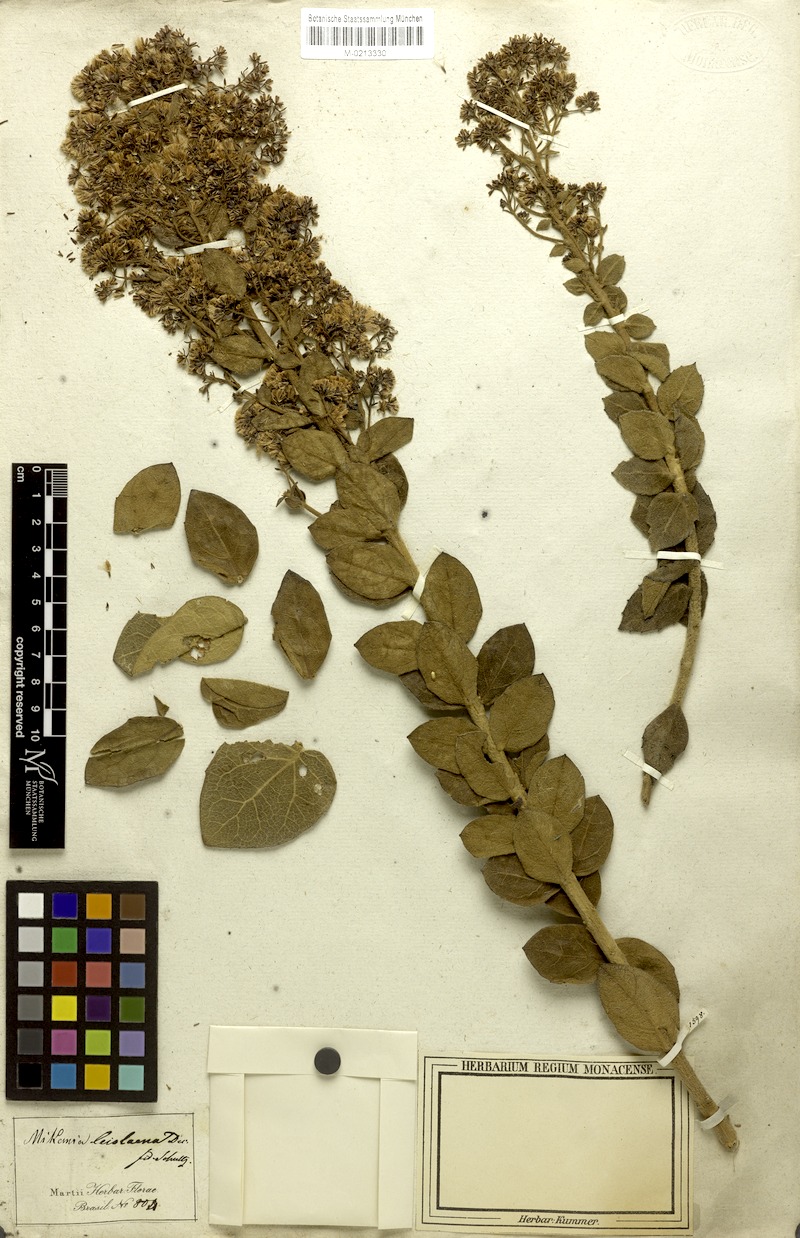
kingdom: Plantae
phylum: Tracheophyta
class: Magnoliopsida
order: Asterales
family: Asteraceae
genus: Mikania
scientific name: Mikania leiolaena
